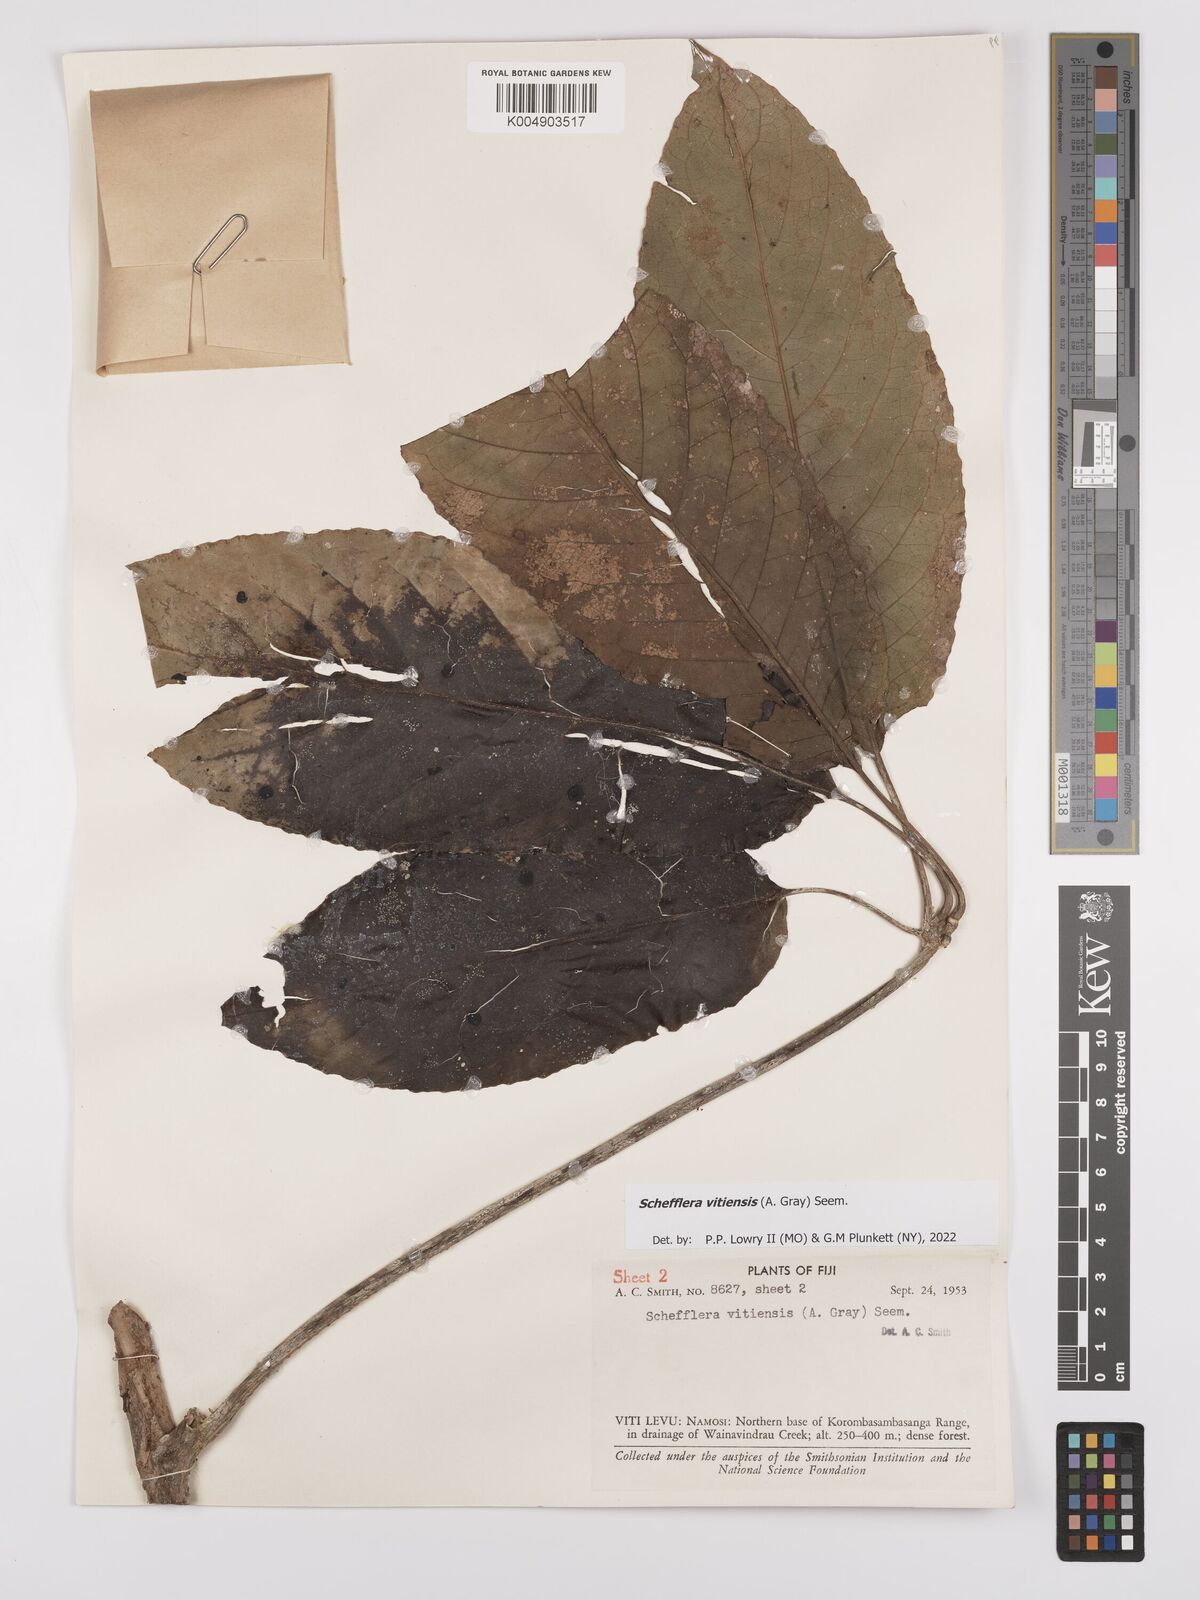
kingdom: Plantae
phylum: Tracheophyta
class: Magnoliopsida
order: Apiales
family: Araliaceae
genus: Schefflera
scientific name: Schefflera vitiensis
